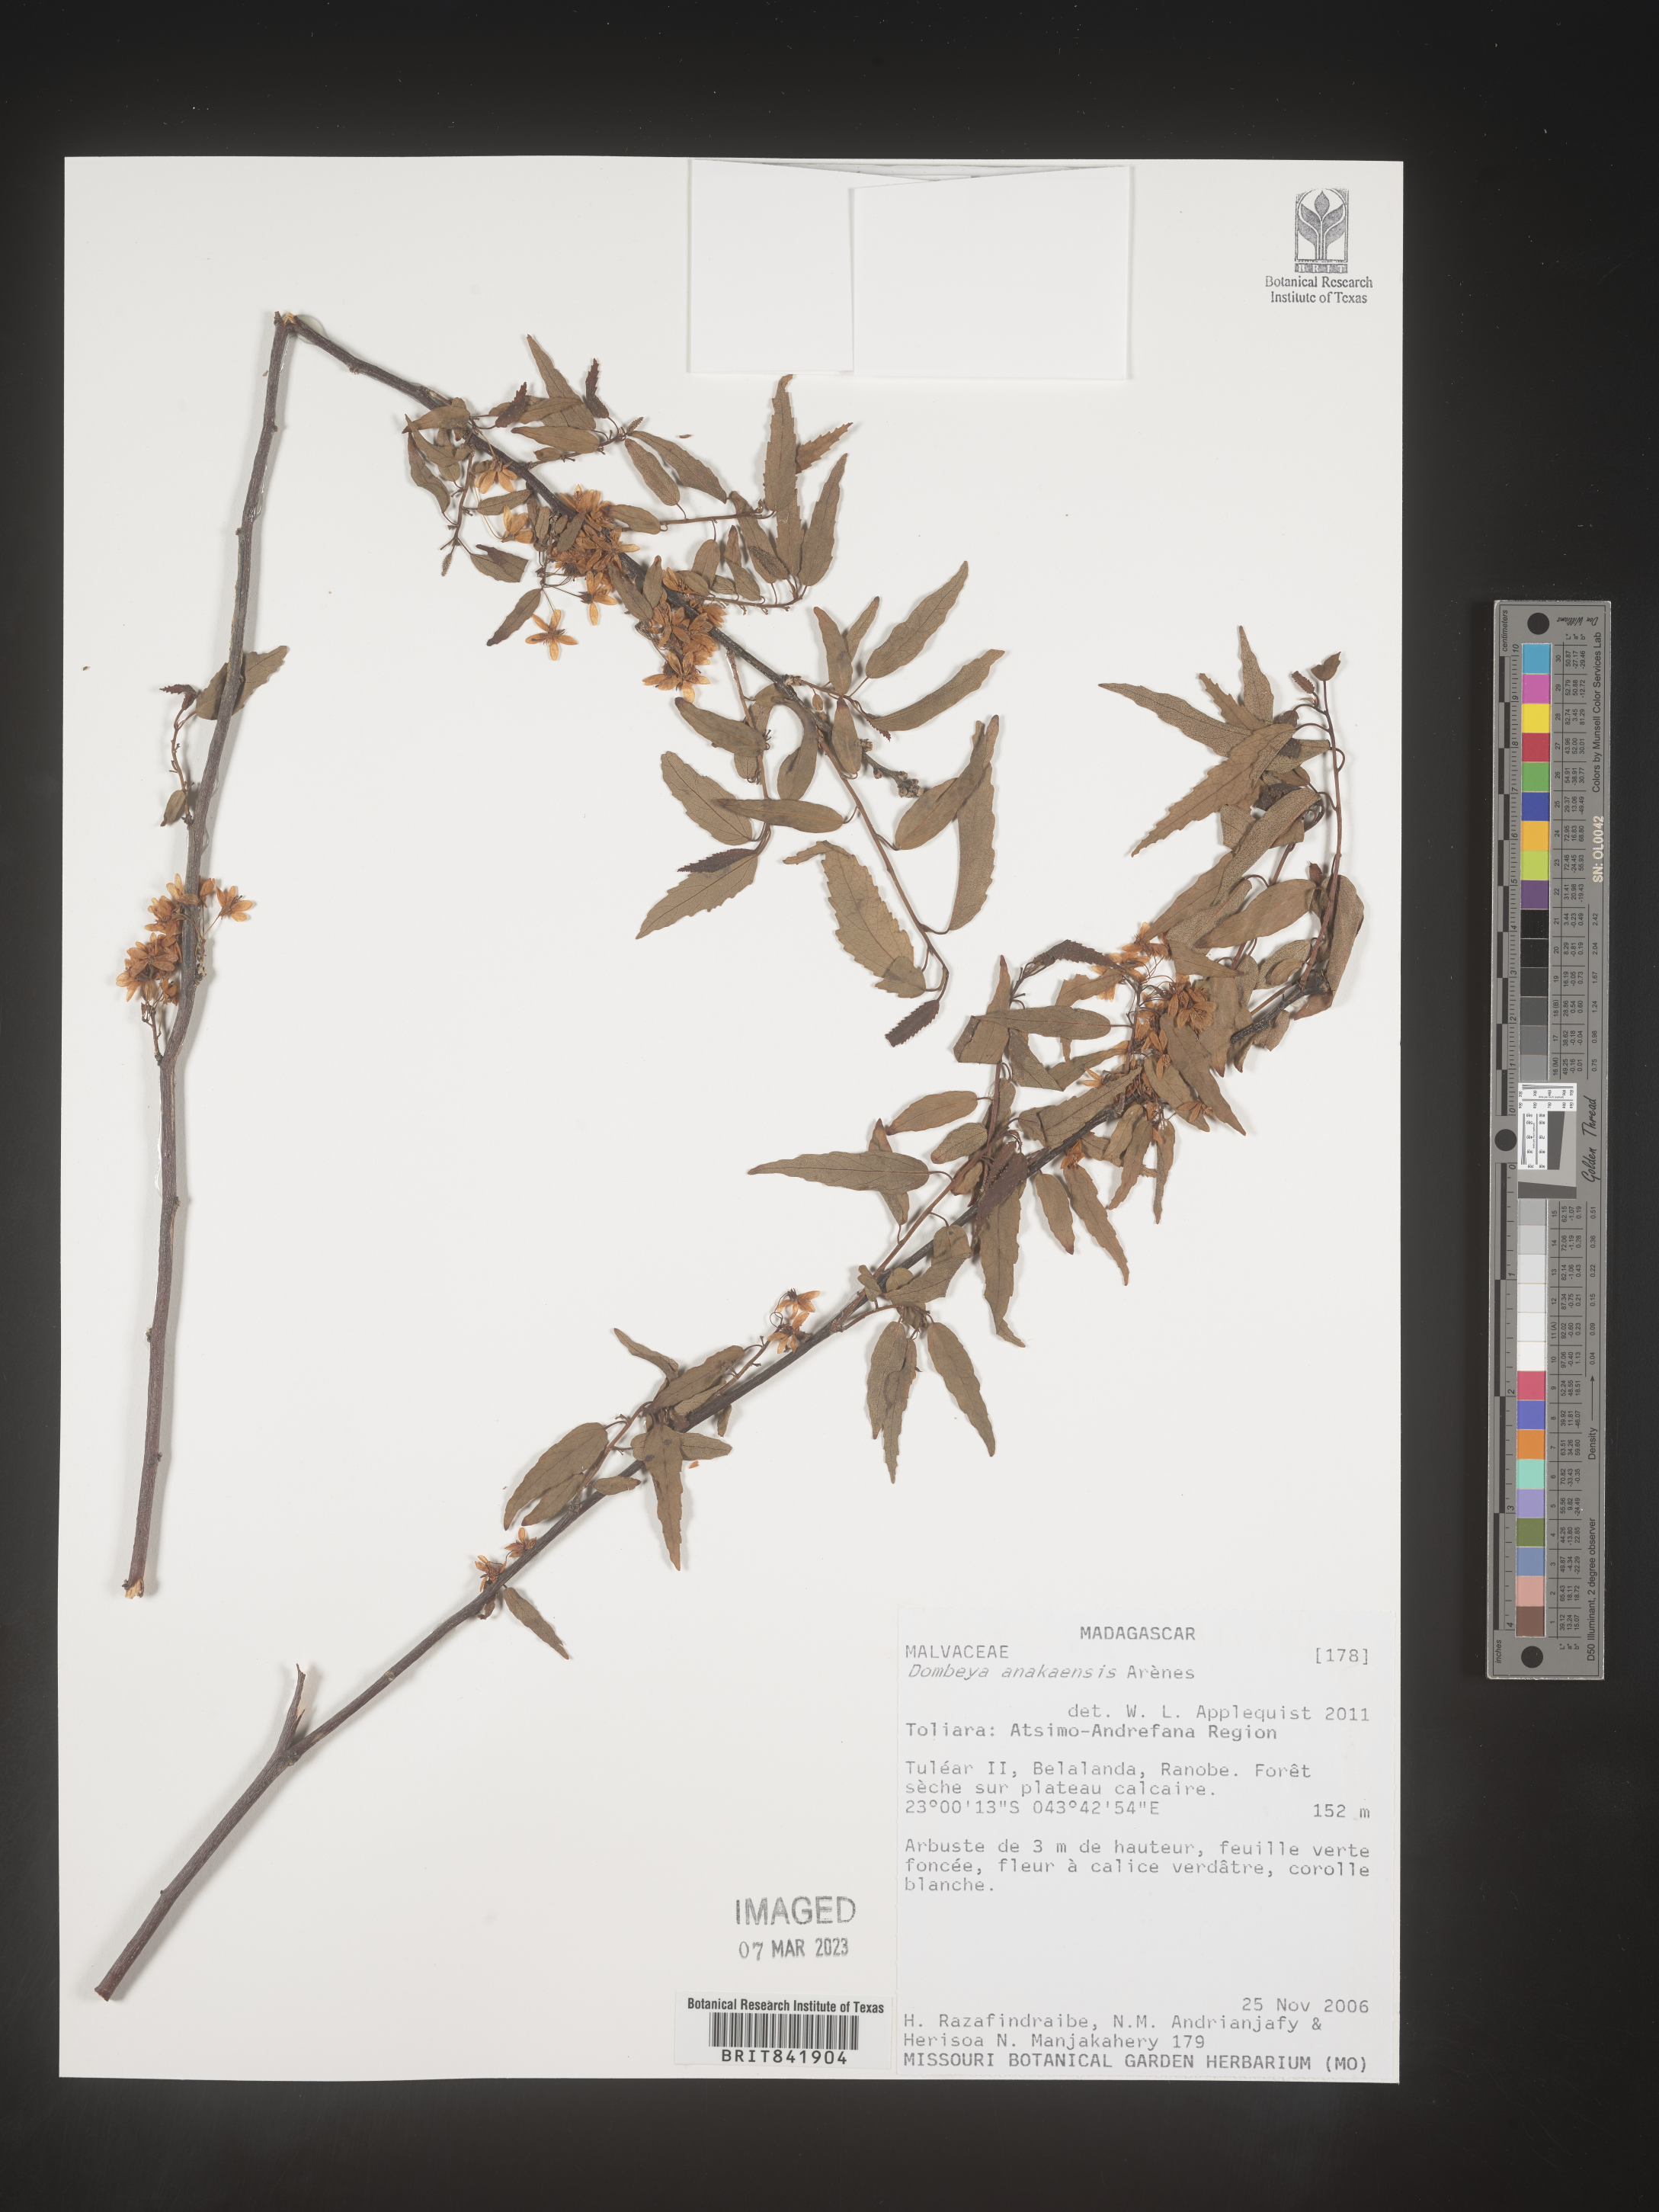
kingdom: Plantae
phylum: Tracheophyta
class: Magnoliopsida
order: Malvales
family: Malvaceae
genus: Dombeya
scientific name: Dombeya anakaensis
